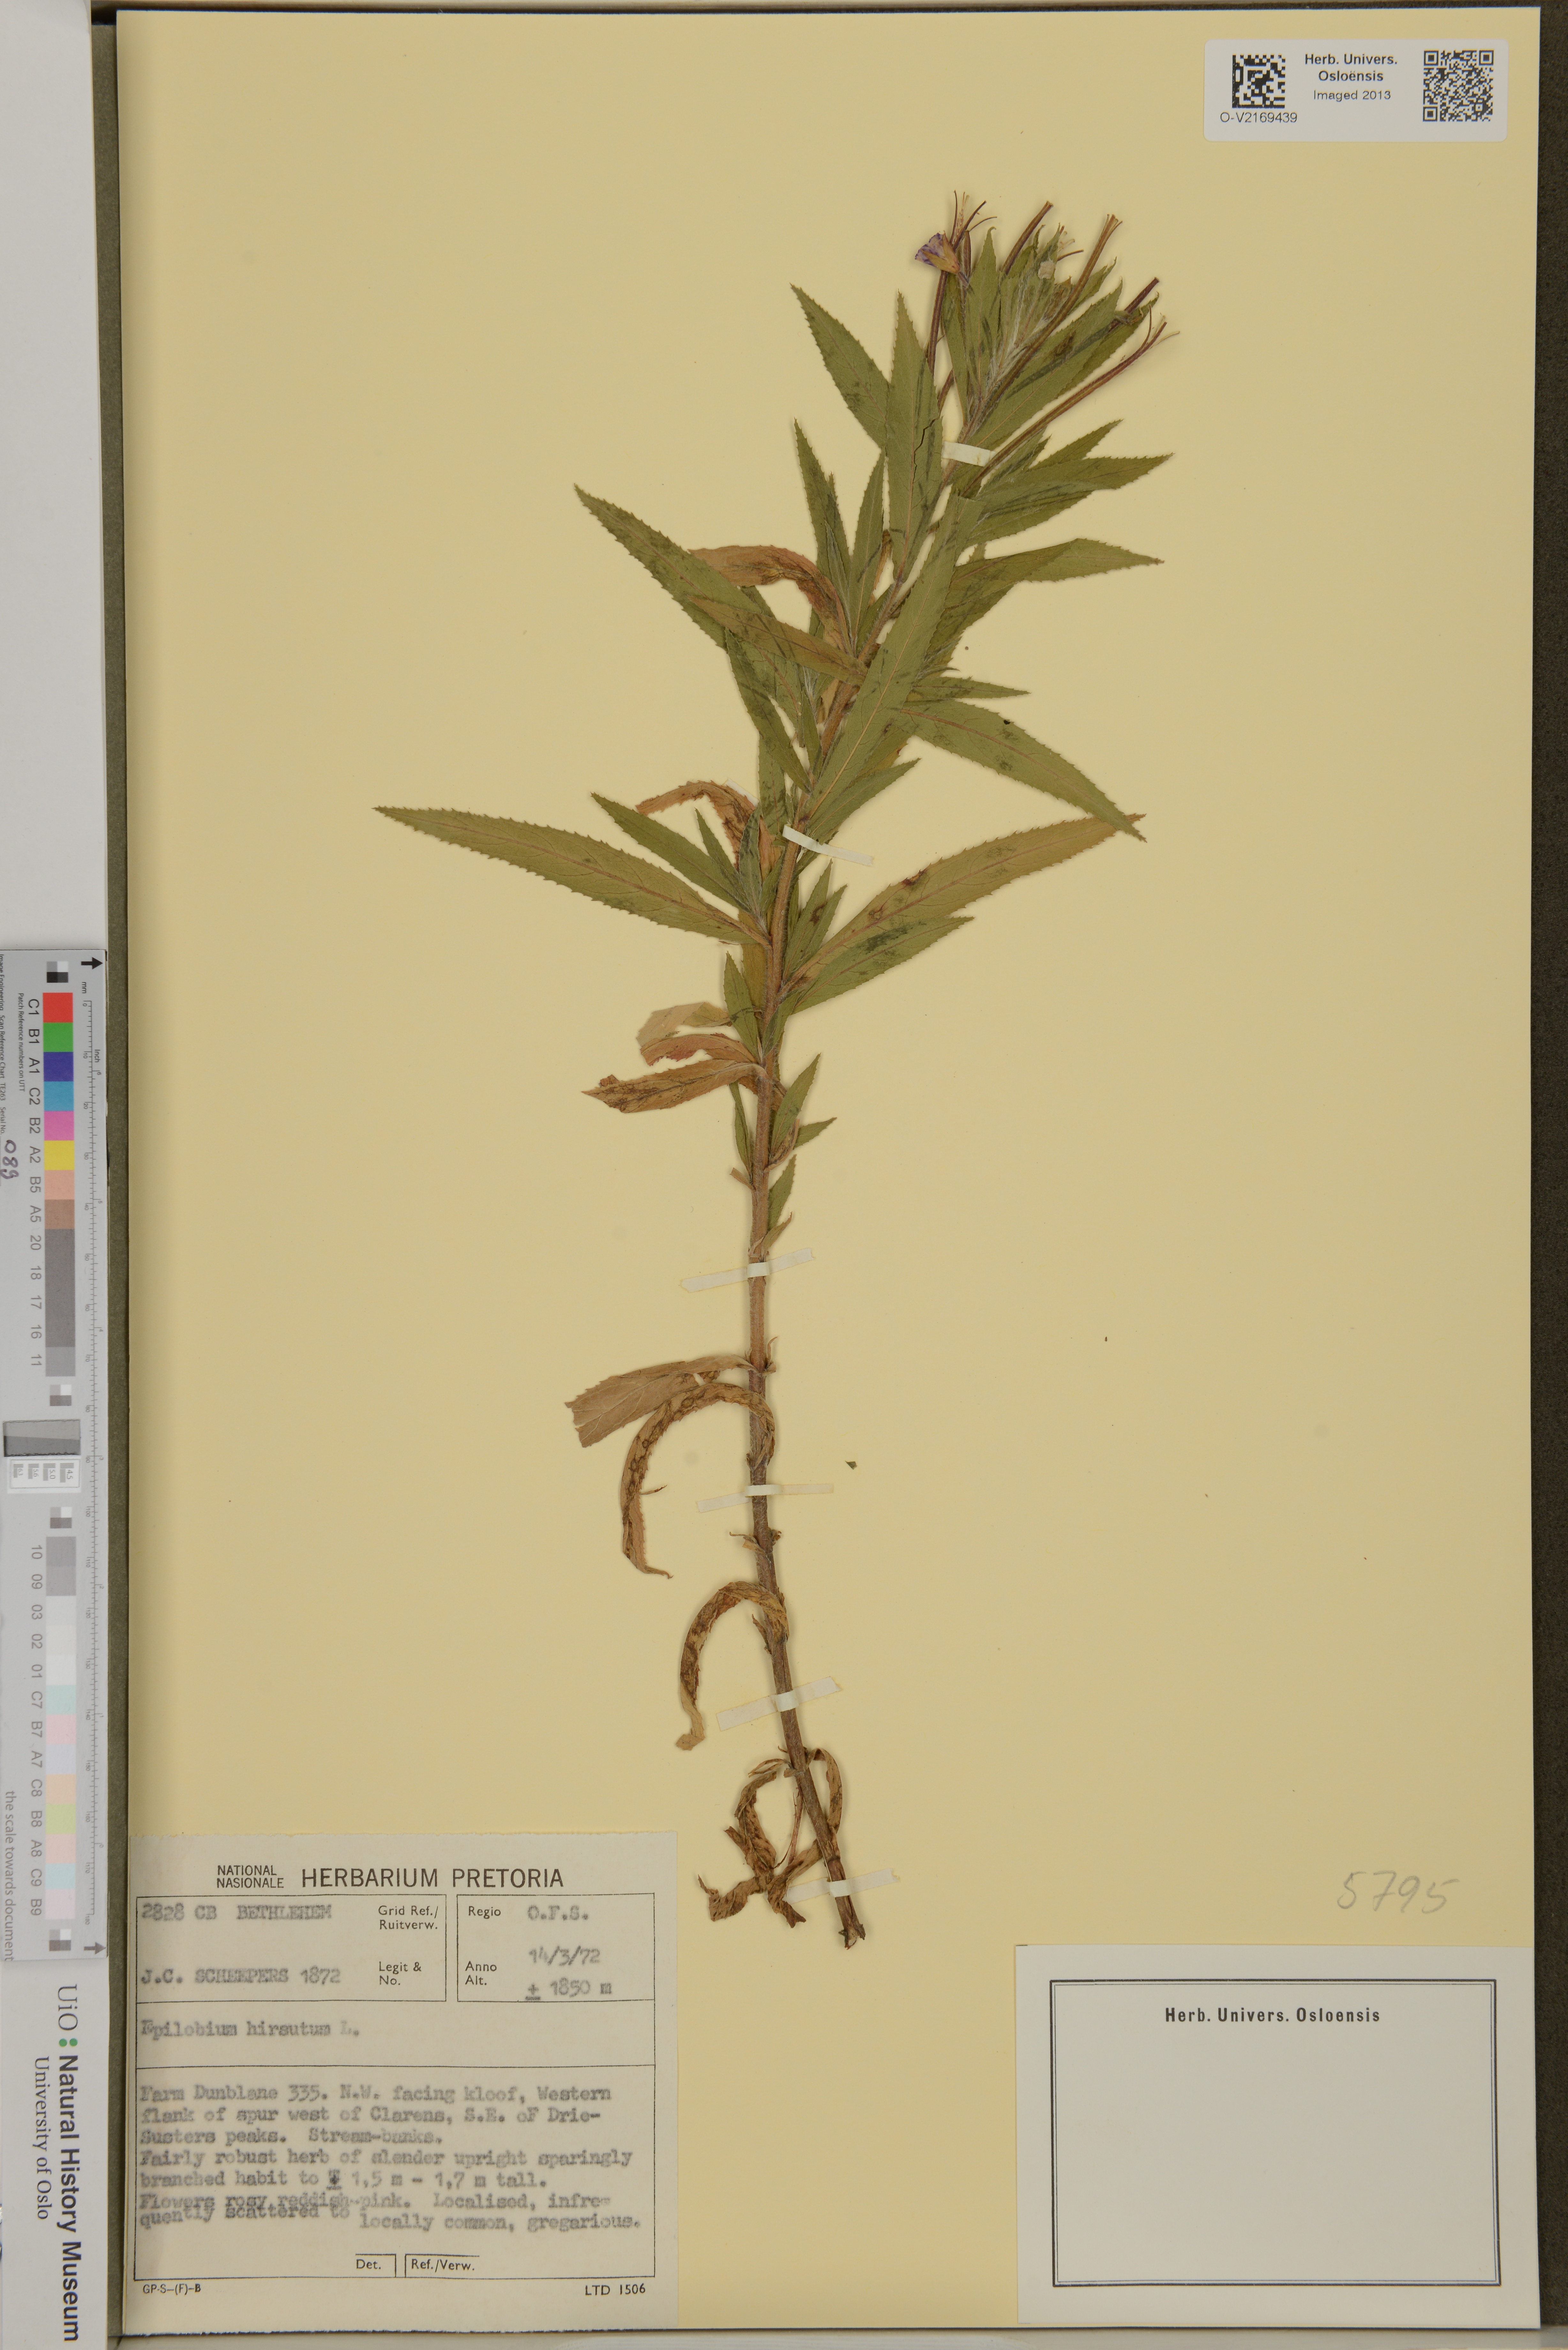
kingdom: Plantae
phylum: Tracheophyta
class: Magnoliopsida
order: Myrtales
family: Onagraceae
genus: Epilobium
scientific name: Epilobium hirsutum
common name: Great willowherb
